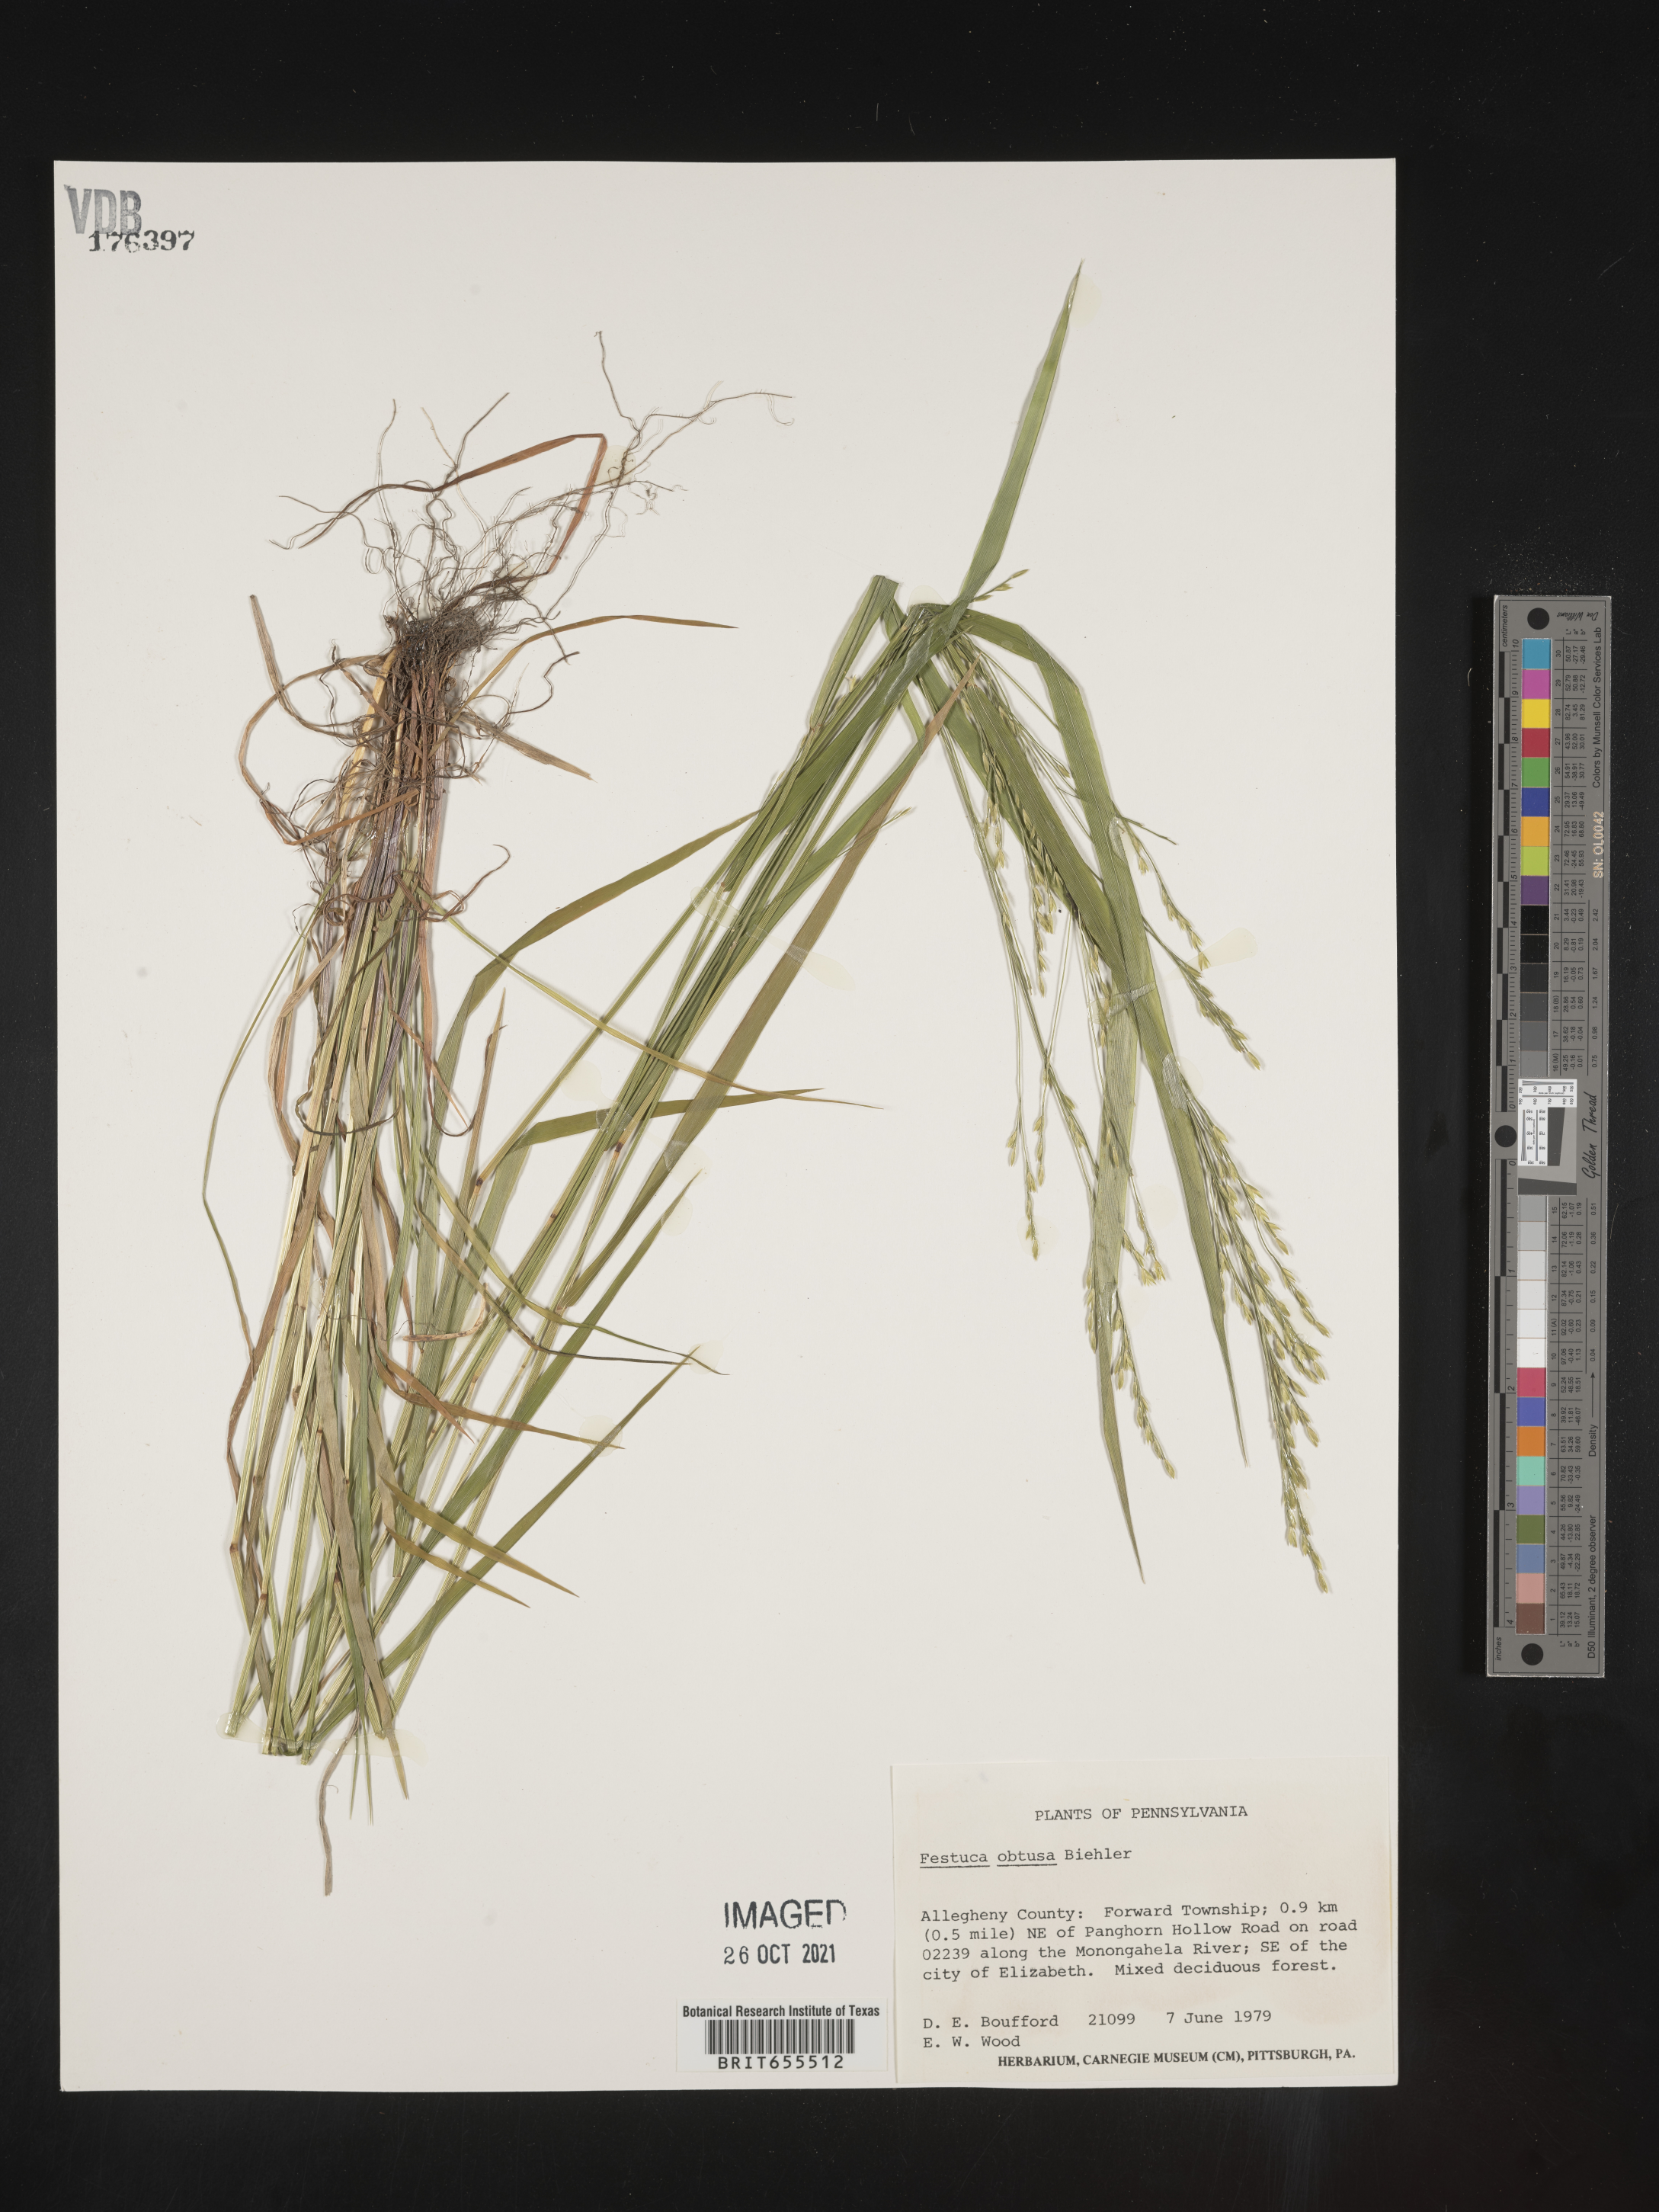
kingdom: Plantae
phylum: Tracheophyta
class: Liliopsida
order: Poales
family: Poaceae
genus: Festuca
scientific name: Festuca
